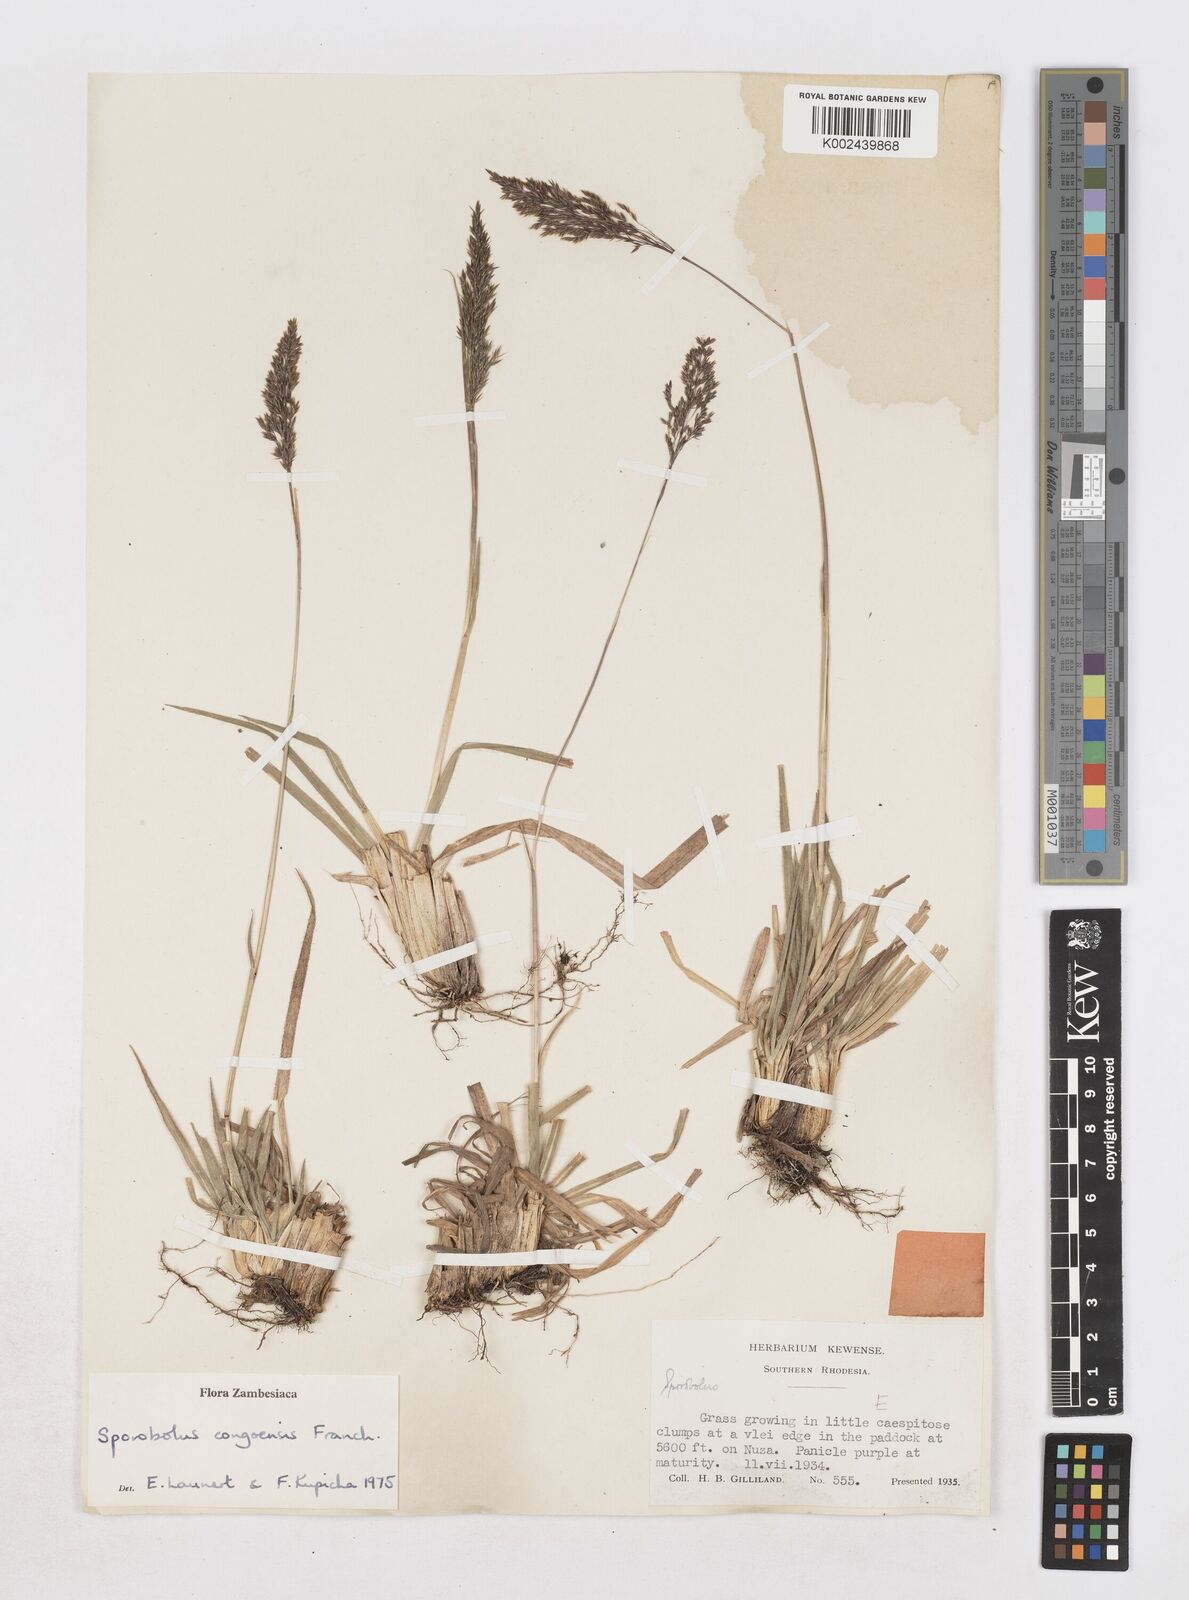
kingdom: Plantae
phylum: Tracheophyta
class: Liliopsida
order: Poales
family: Poaceae
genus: Sporobolus
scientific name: Sporobolus congoensis
